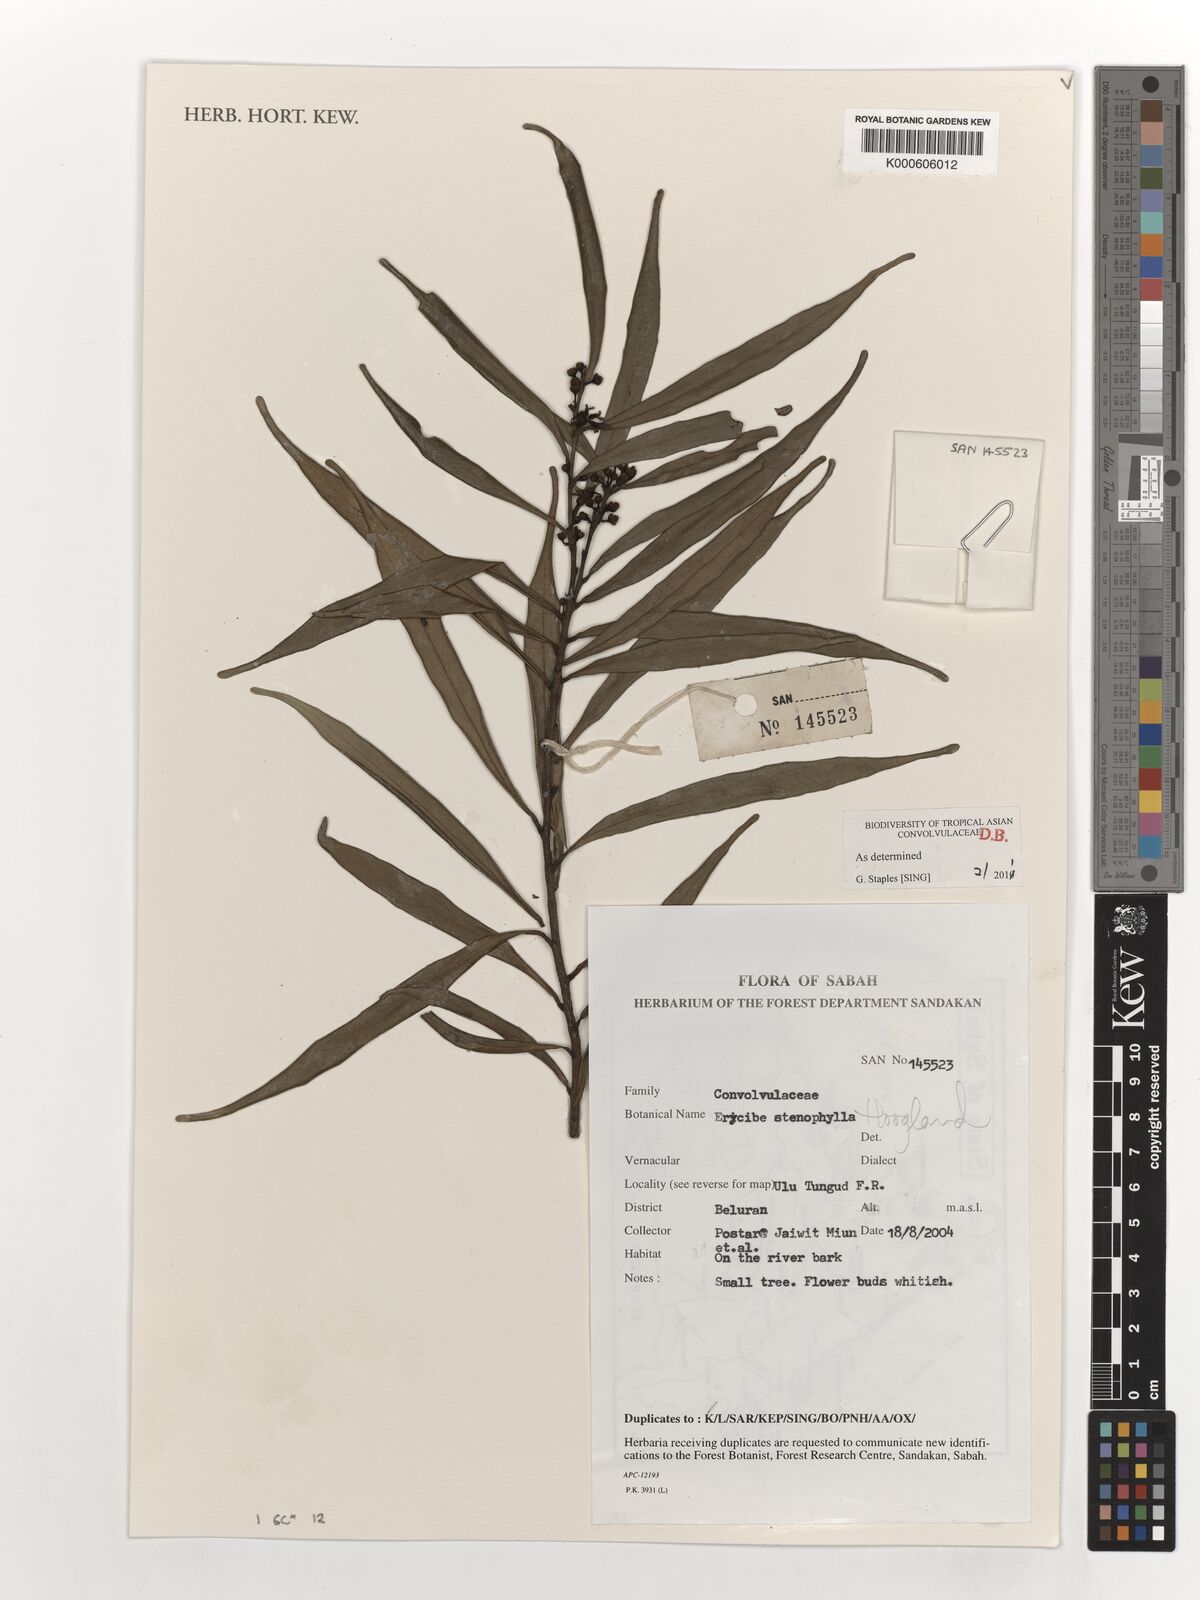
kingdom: Plantae
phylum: Tracheophyta
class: Magnoliopsida
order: Solanales
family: Convolvulaceae
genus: Erycibe
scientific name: Erycibe stenophylla
